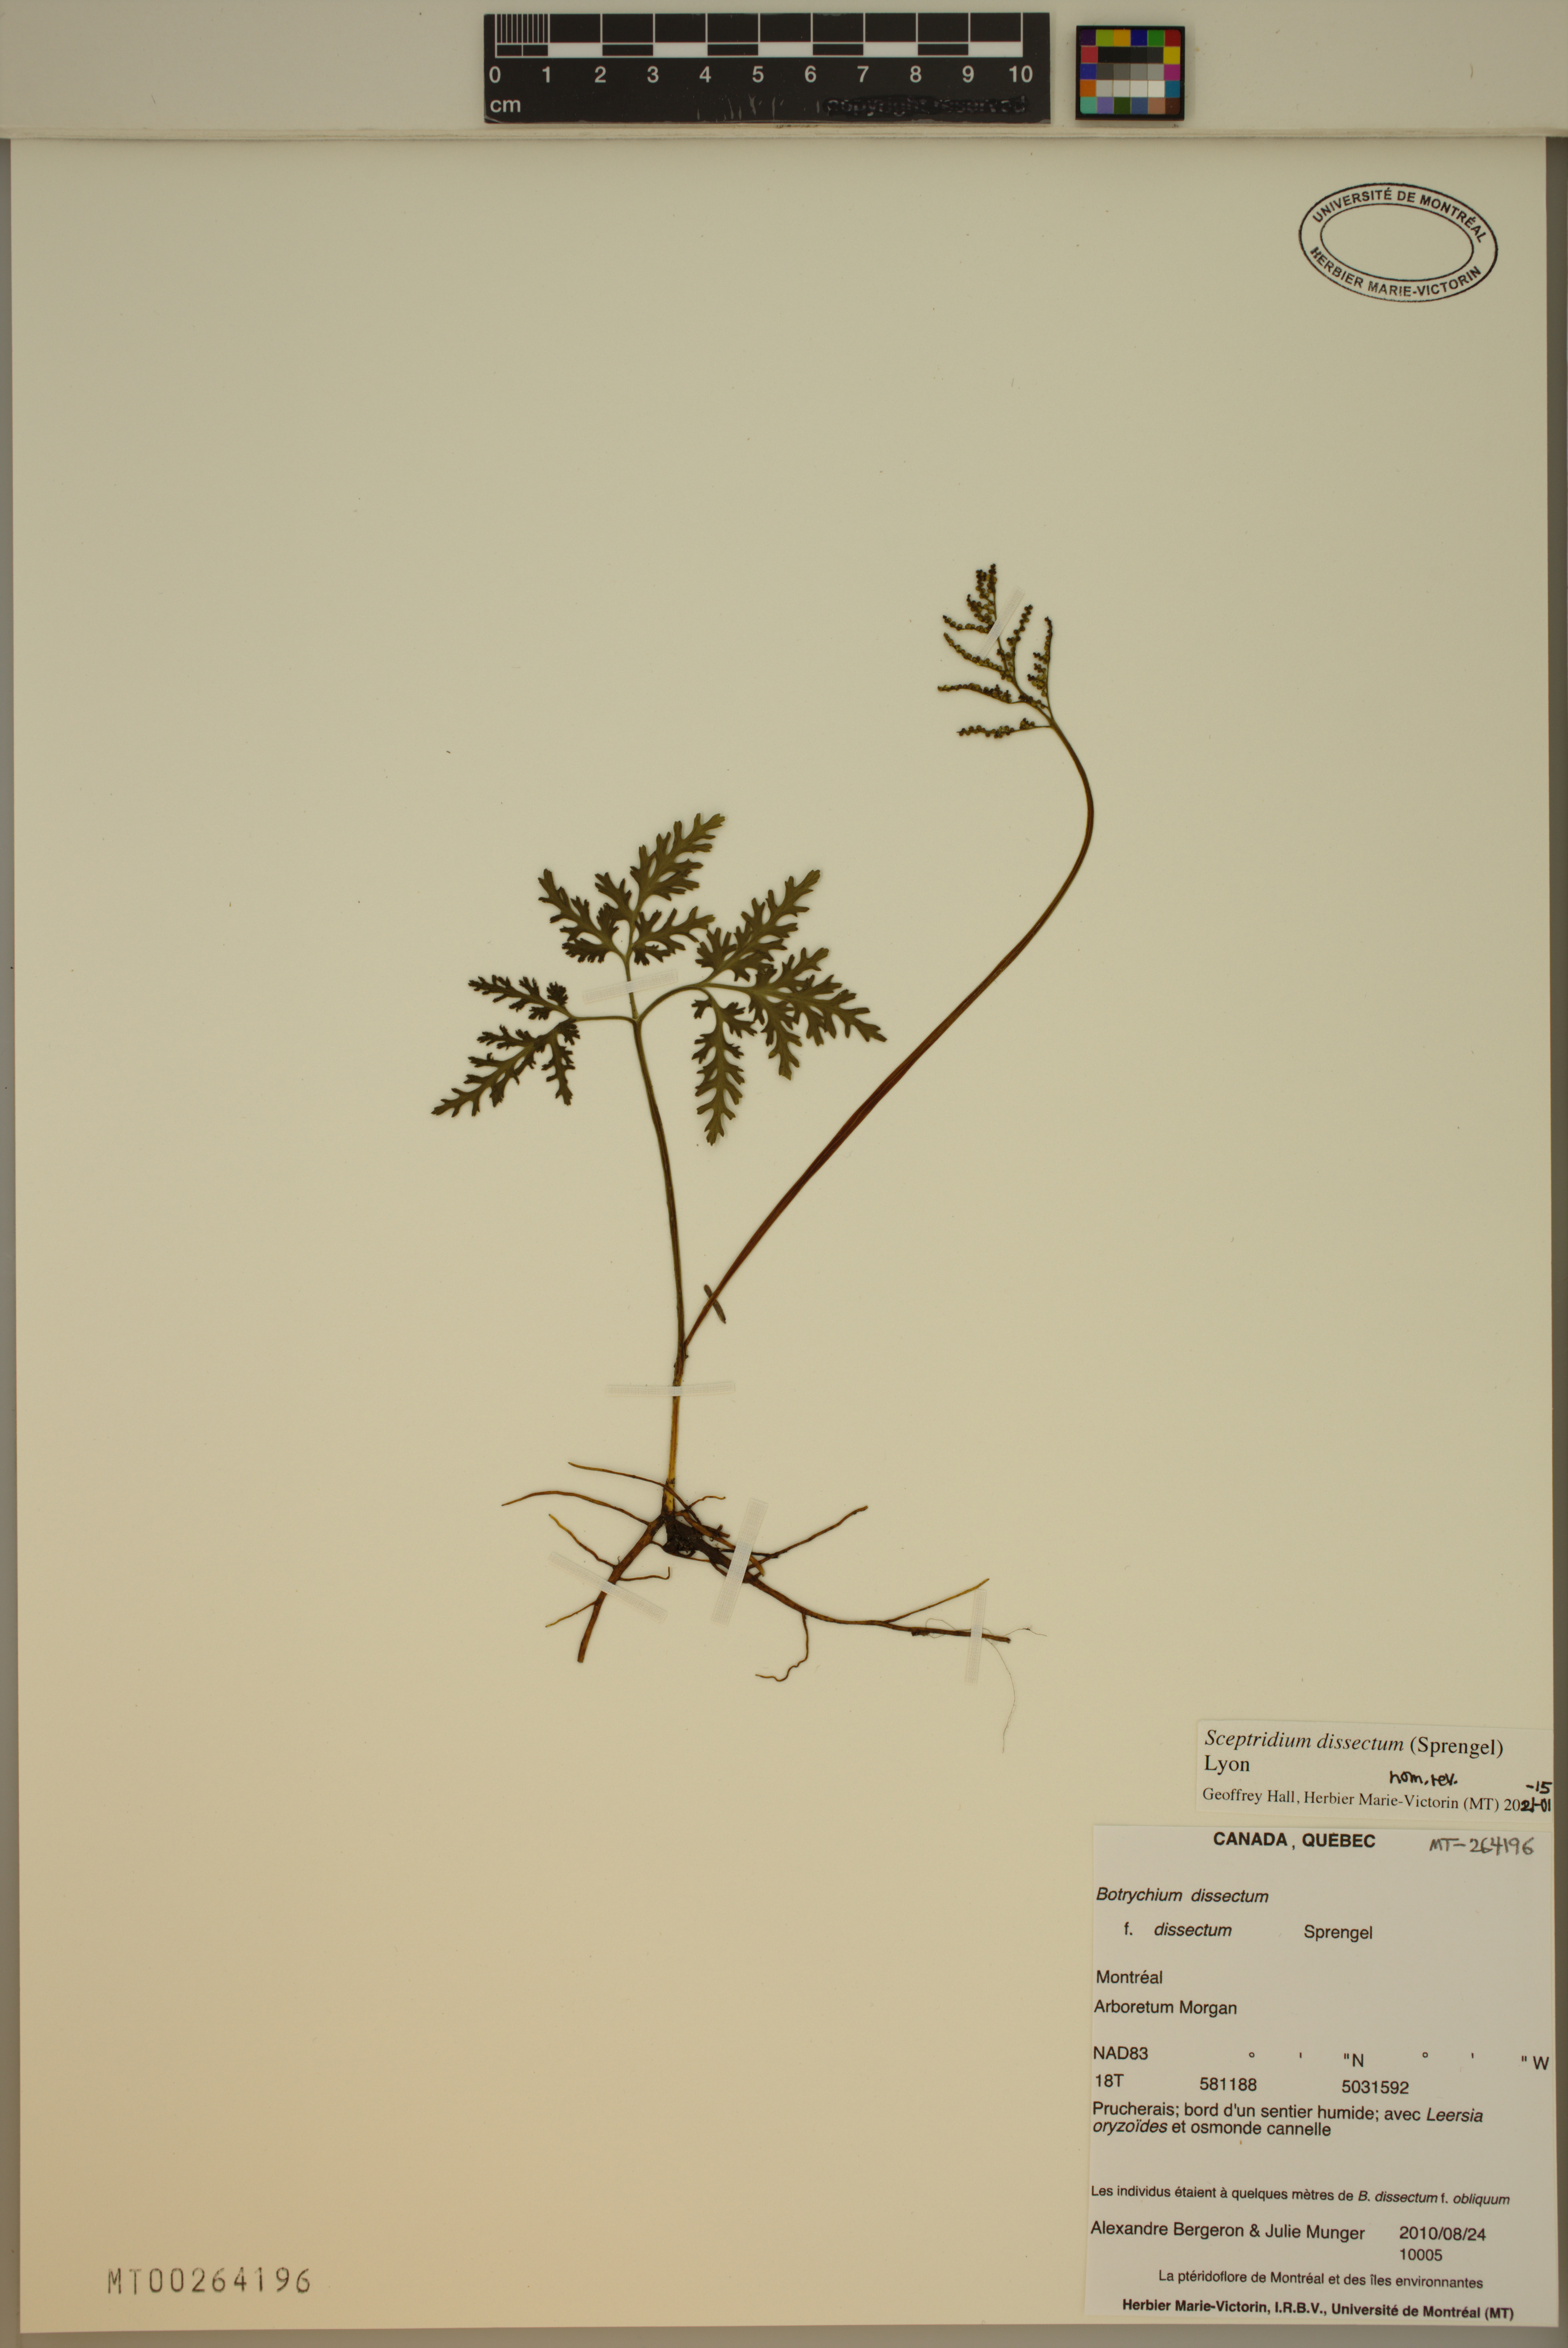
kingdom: Plantae
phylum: Tracheophyta
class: Polypodiopsida
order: Ophioglossales
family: Ophioglossaceae
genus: Sceptridium
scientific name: Sceptridium dissectum
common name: Cut-leaved grapefern
